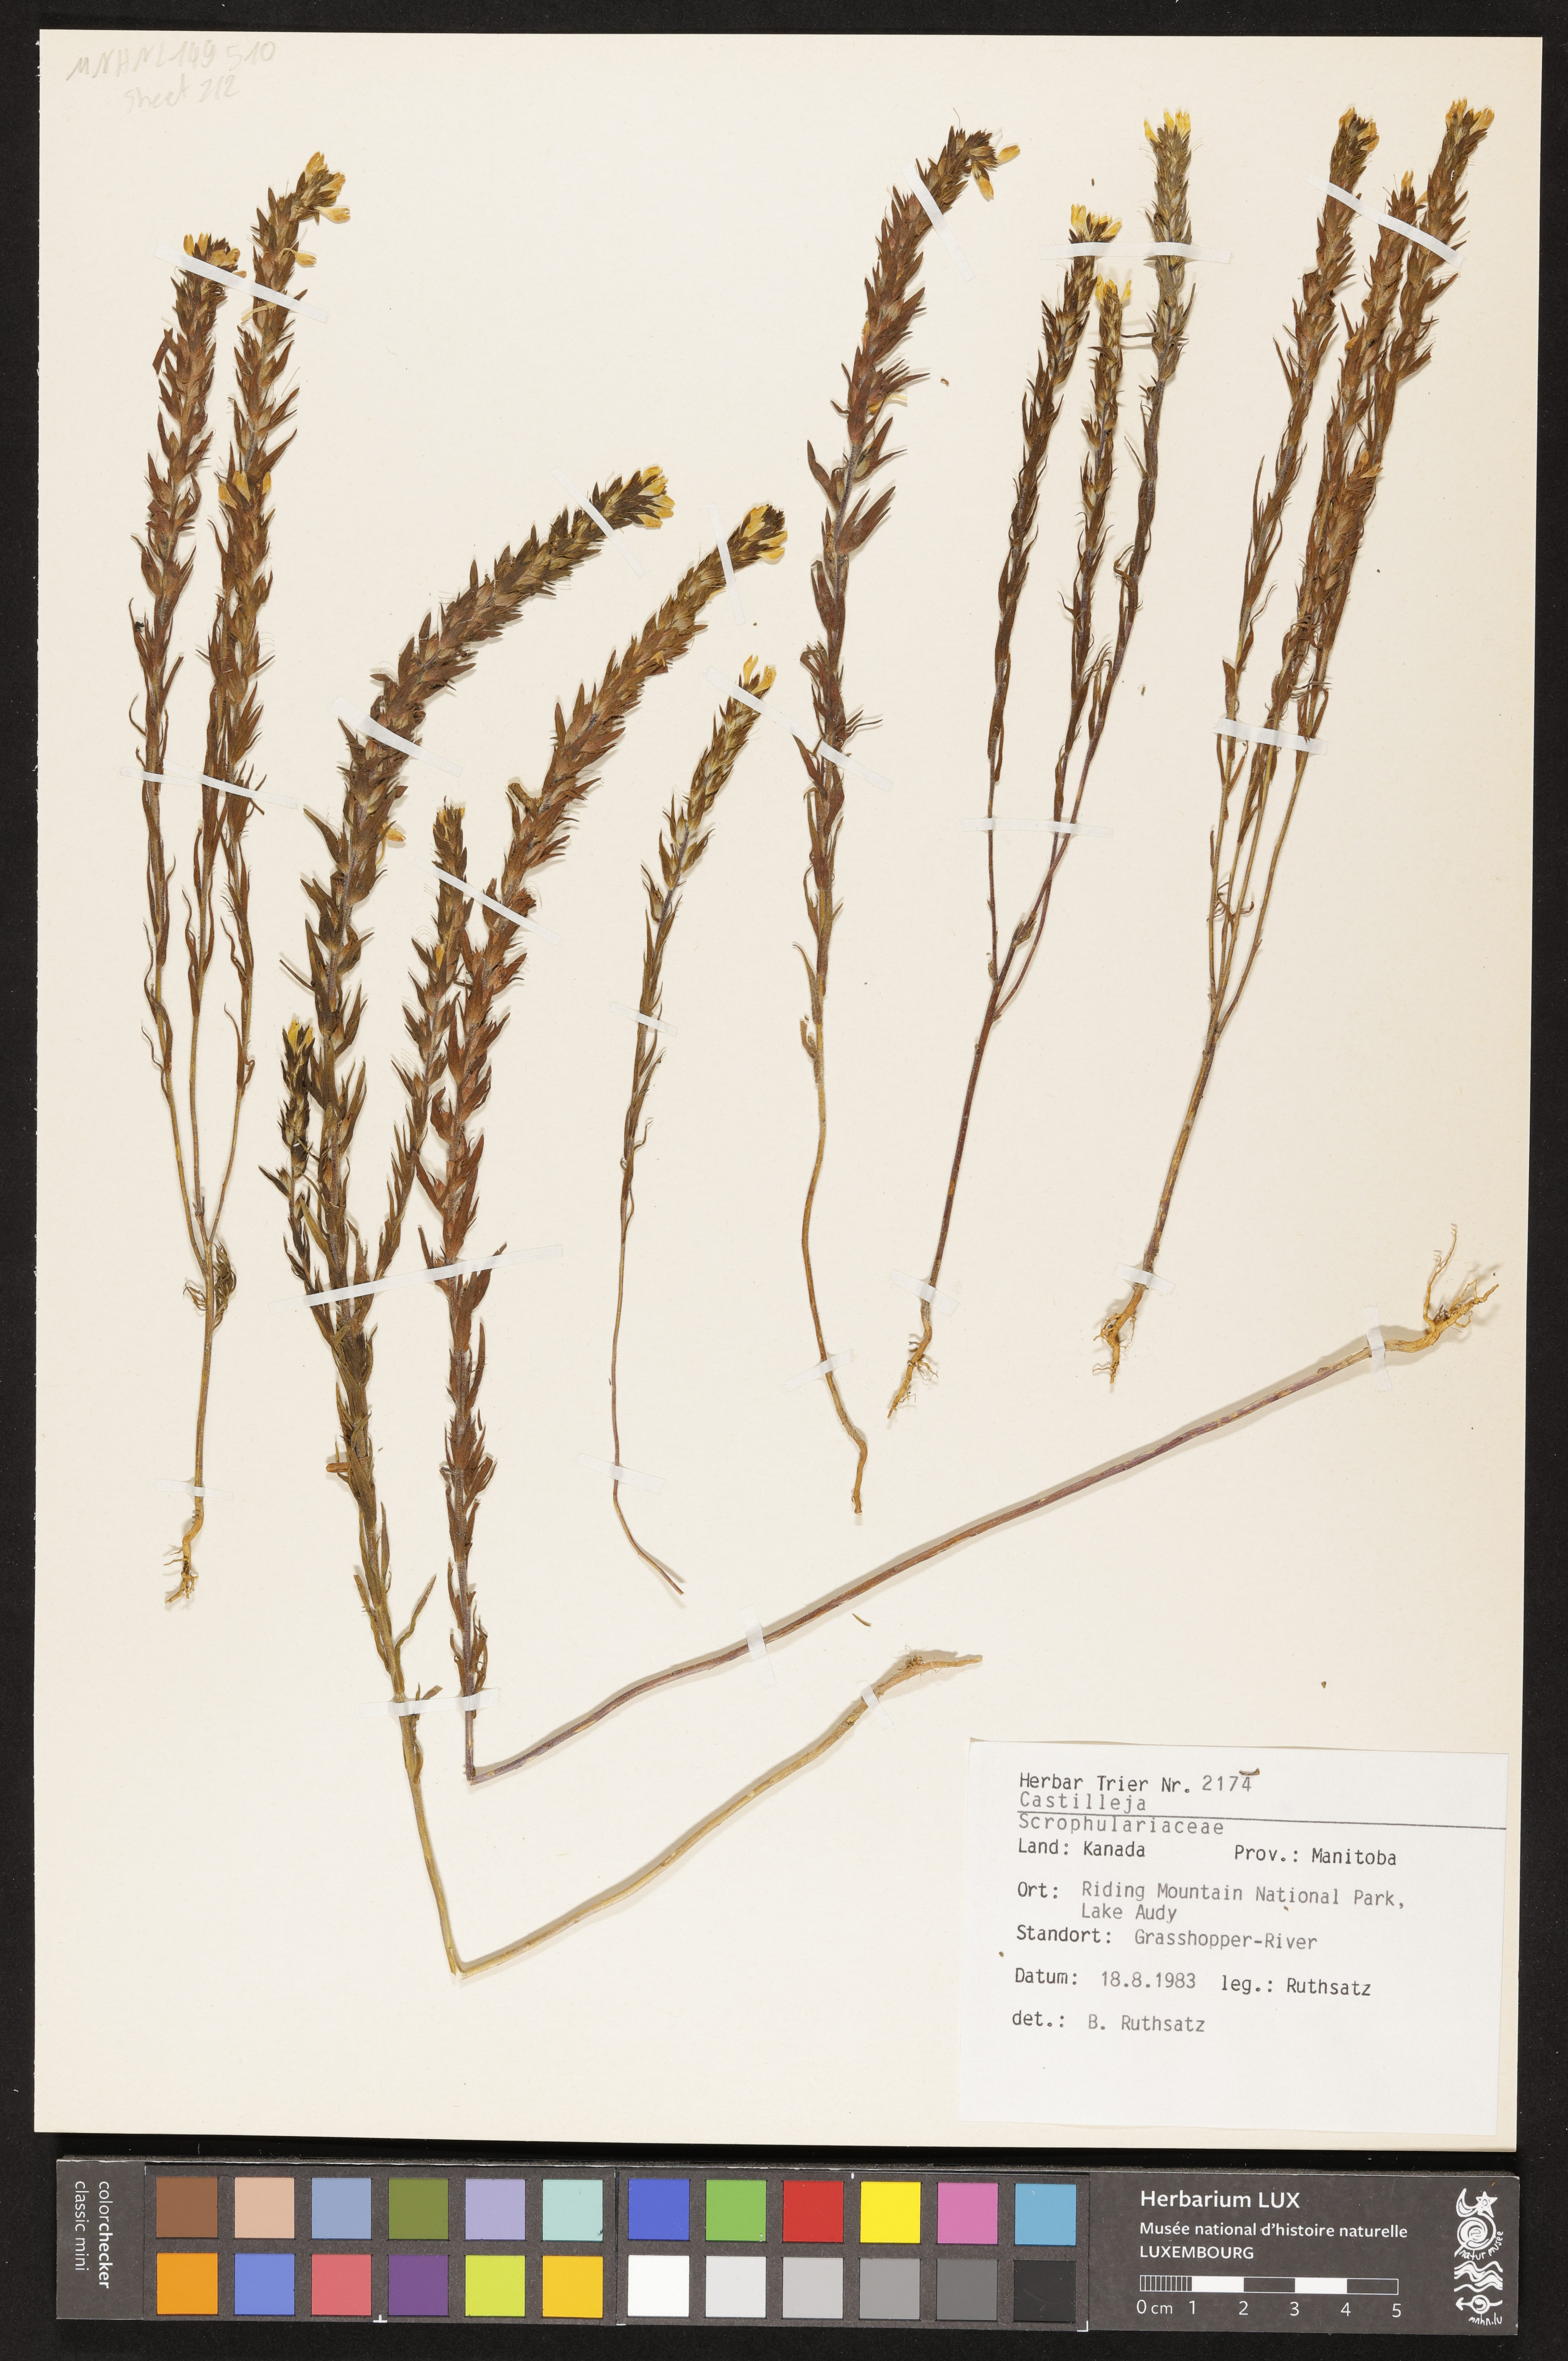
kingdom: Plantae
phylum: Tracheophyta
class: Magnoliopsida
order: Lamiales
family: Orobanchaceae
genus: Castilleja
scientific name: Castilleja
